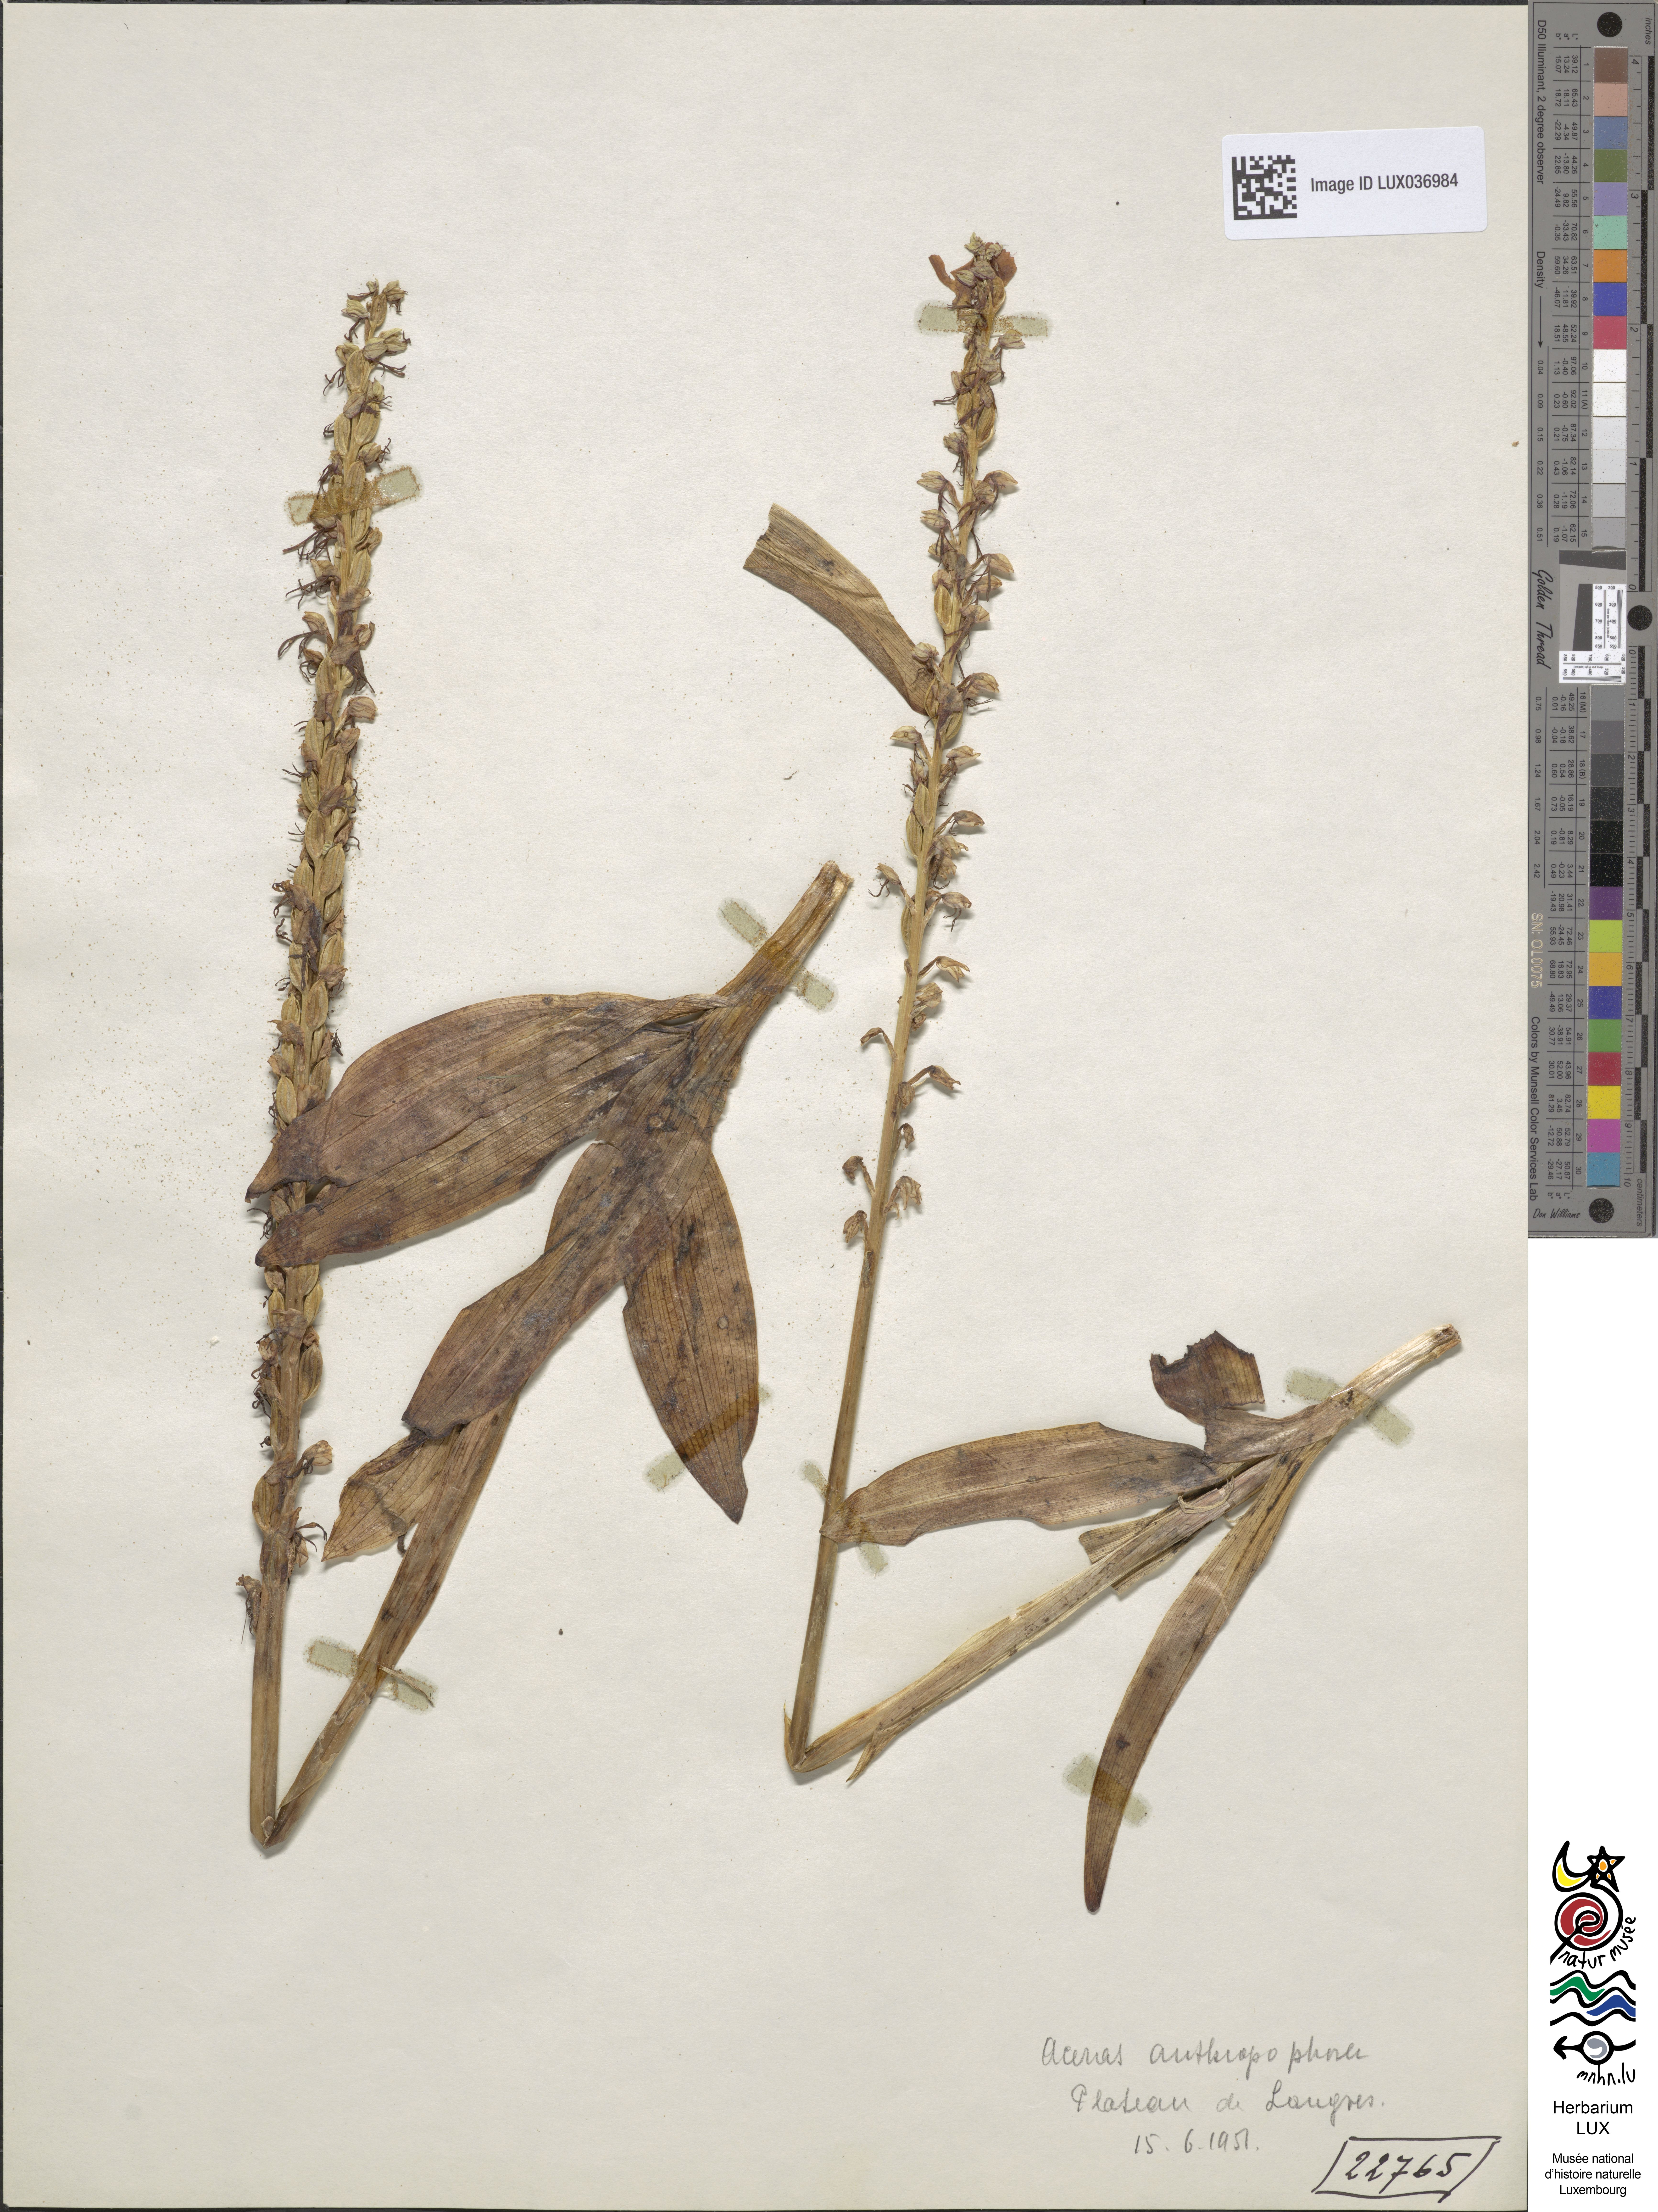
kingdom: Plantae
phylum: Tracheophyta
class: Liliopsida
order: Asparagales
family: Orchidaceae
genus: Orchis
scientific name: Orchis anthropophora
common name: Man orchid
